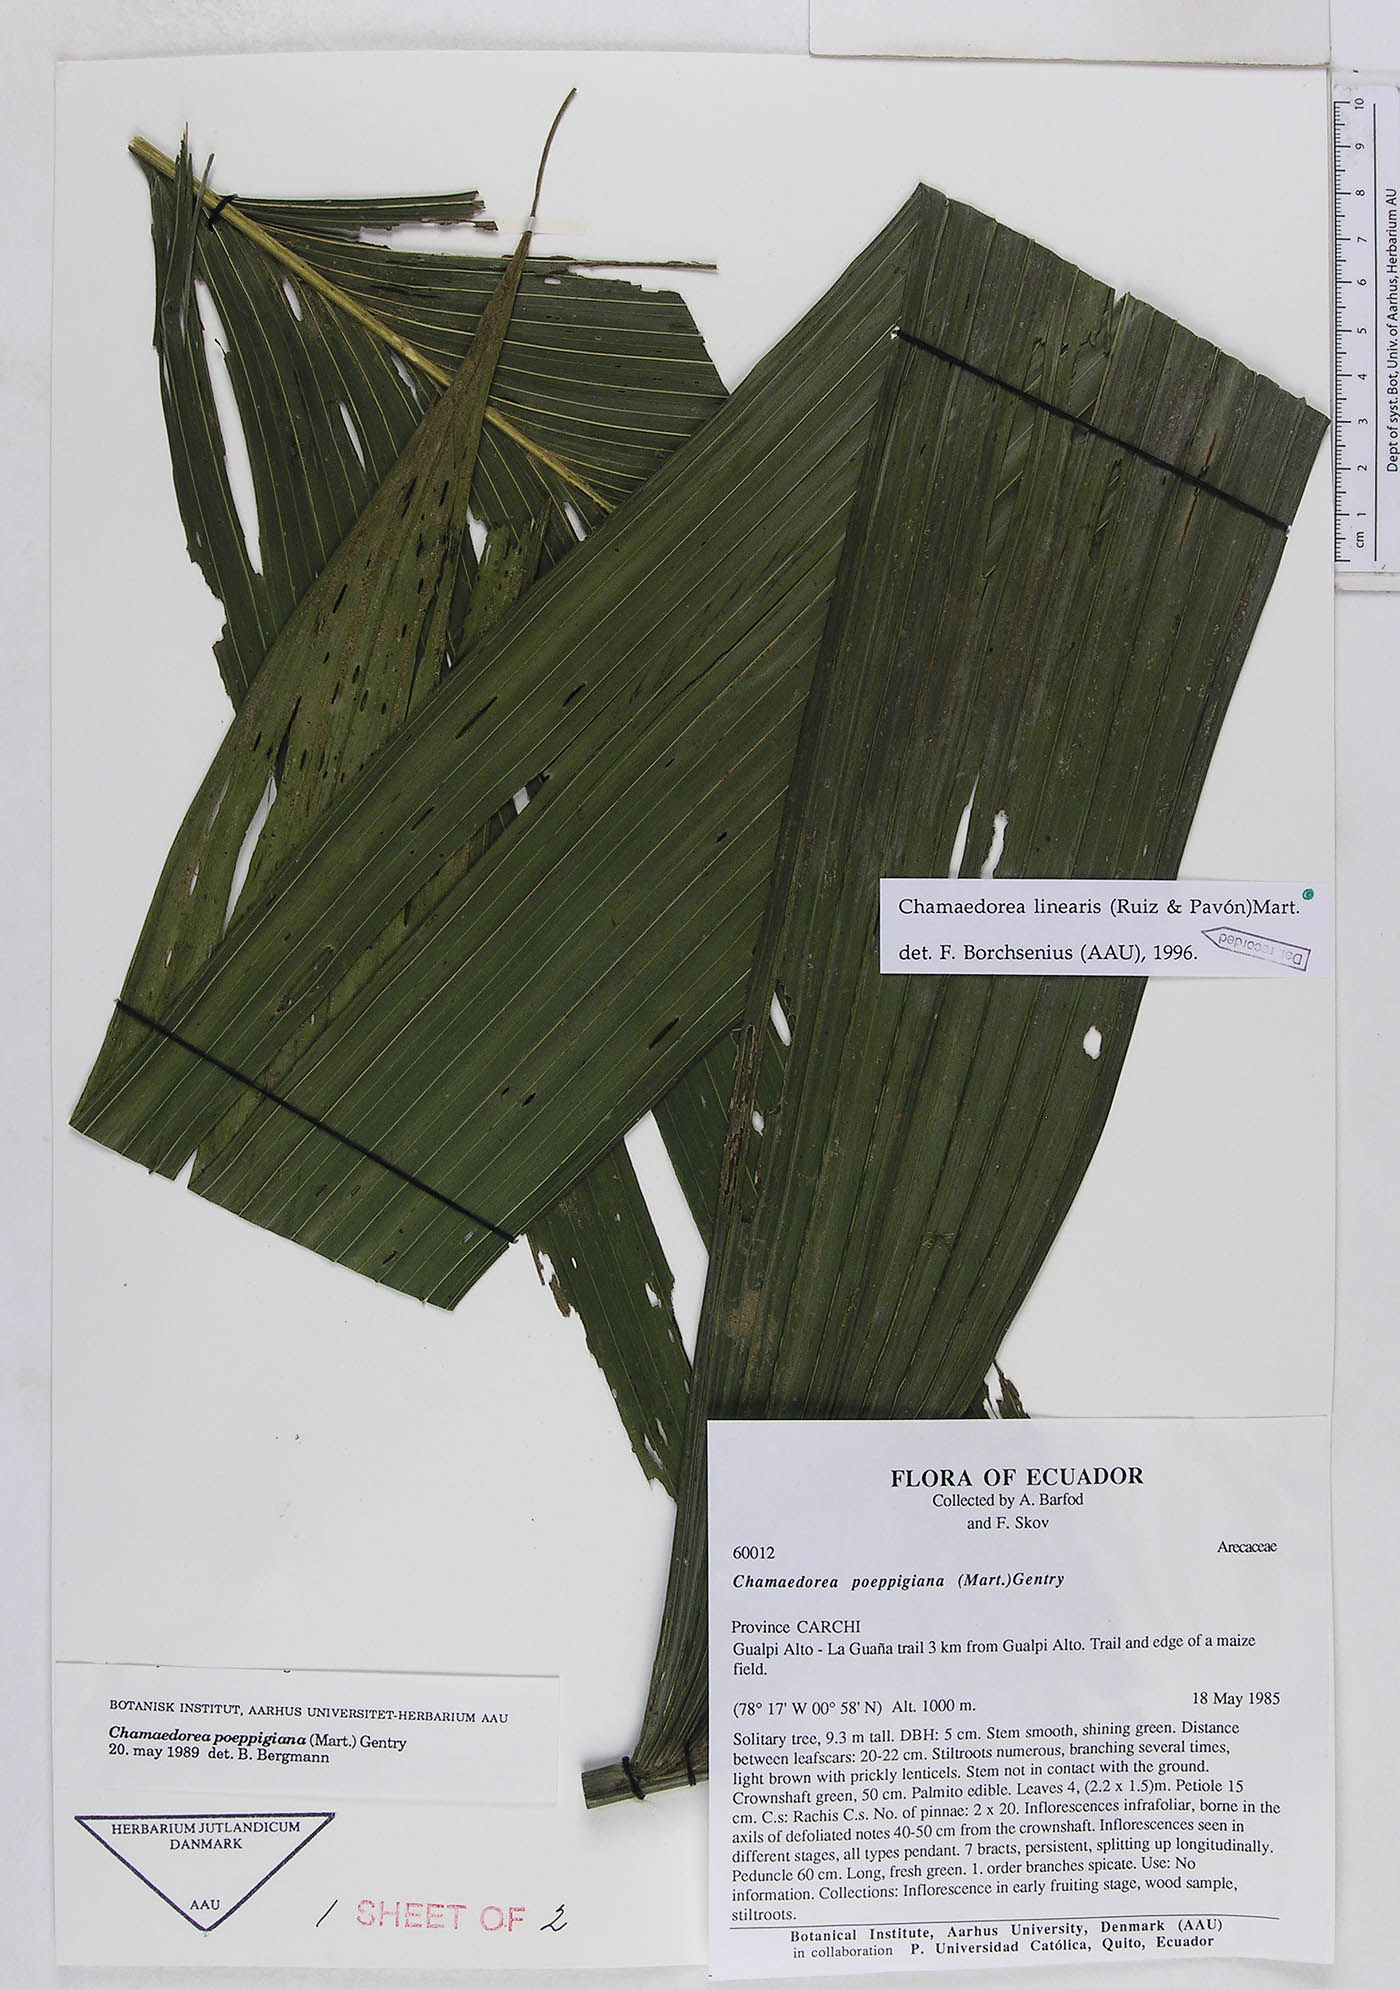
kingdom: Plantae
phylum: Tracheophyta
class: Liliopsida
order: Arecales
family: Arecaceae
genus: Chamaedorea
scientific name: Chamaedorea linearis
